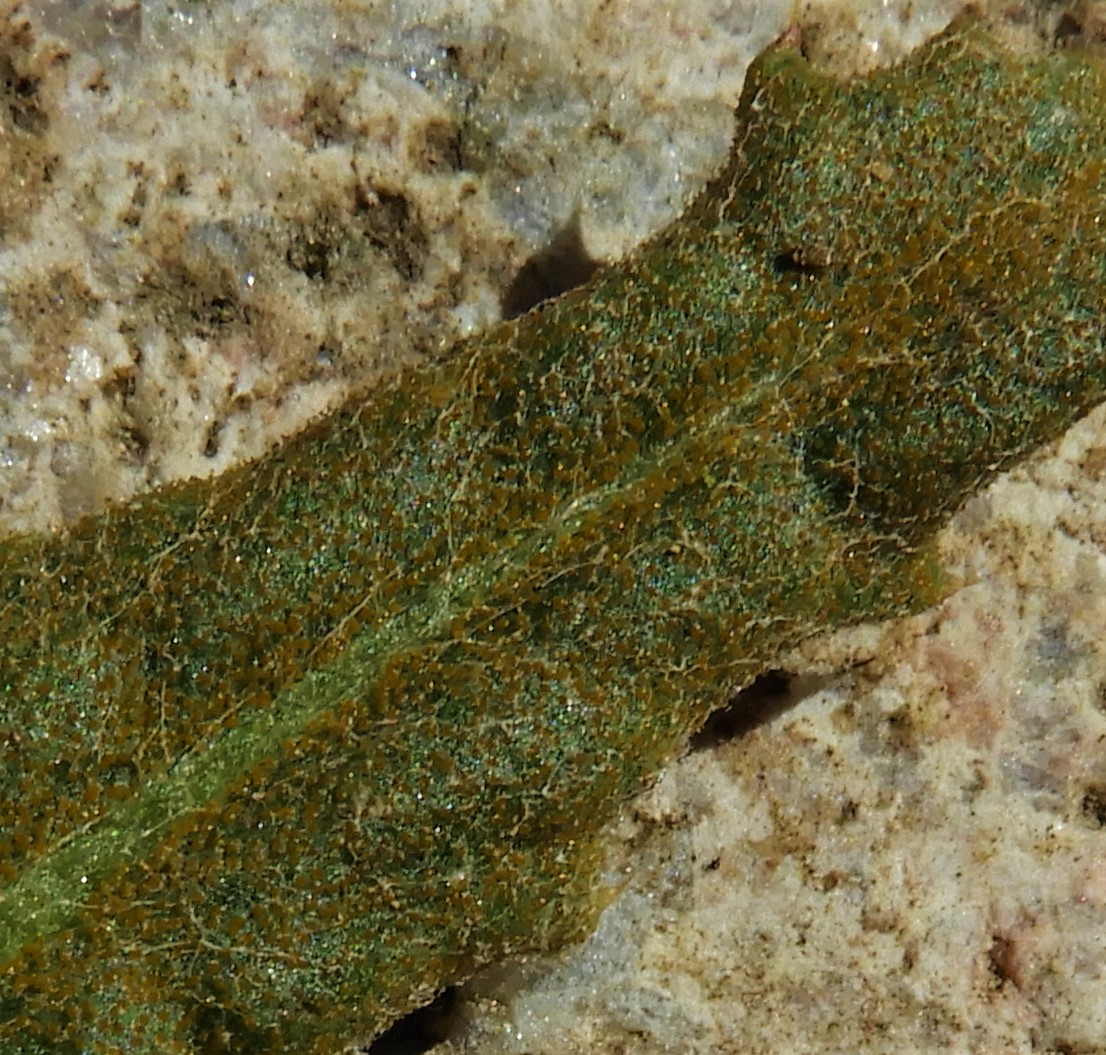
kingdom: Fungi
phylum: Basidiomycota
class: Pucciniomycetes
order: Pucciniales
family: Pucciniaceae
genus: Puccinia
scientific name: Puccinia suaveolens
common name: tidsel-tvecellerust
